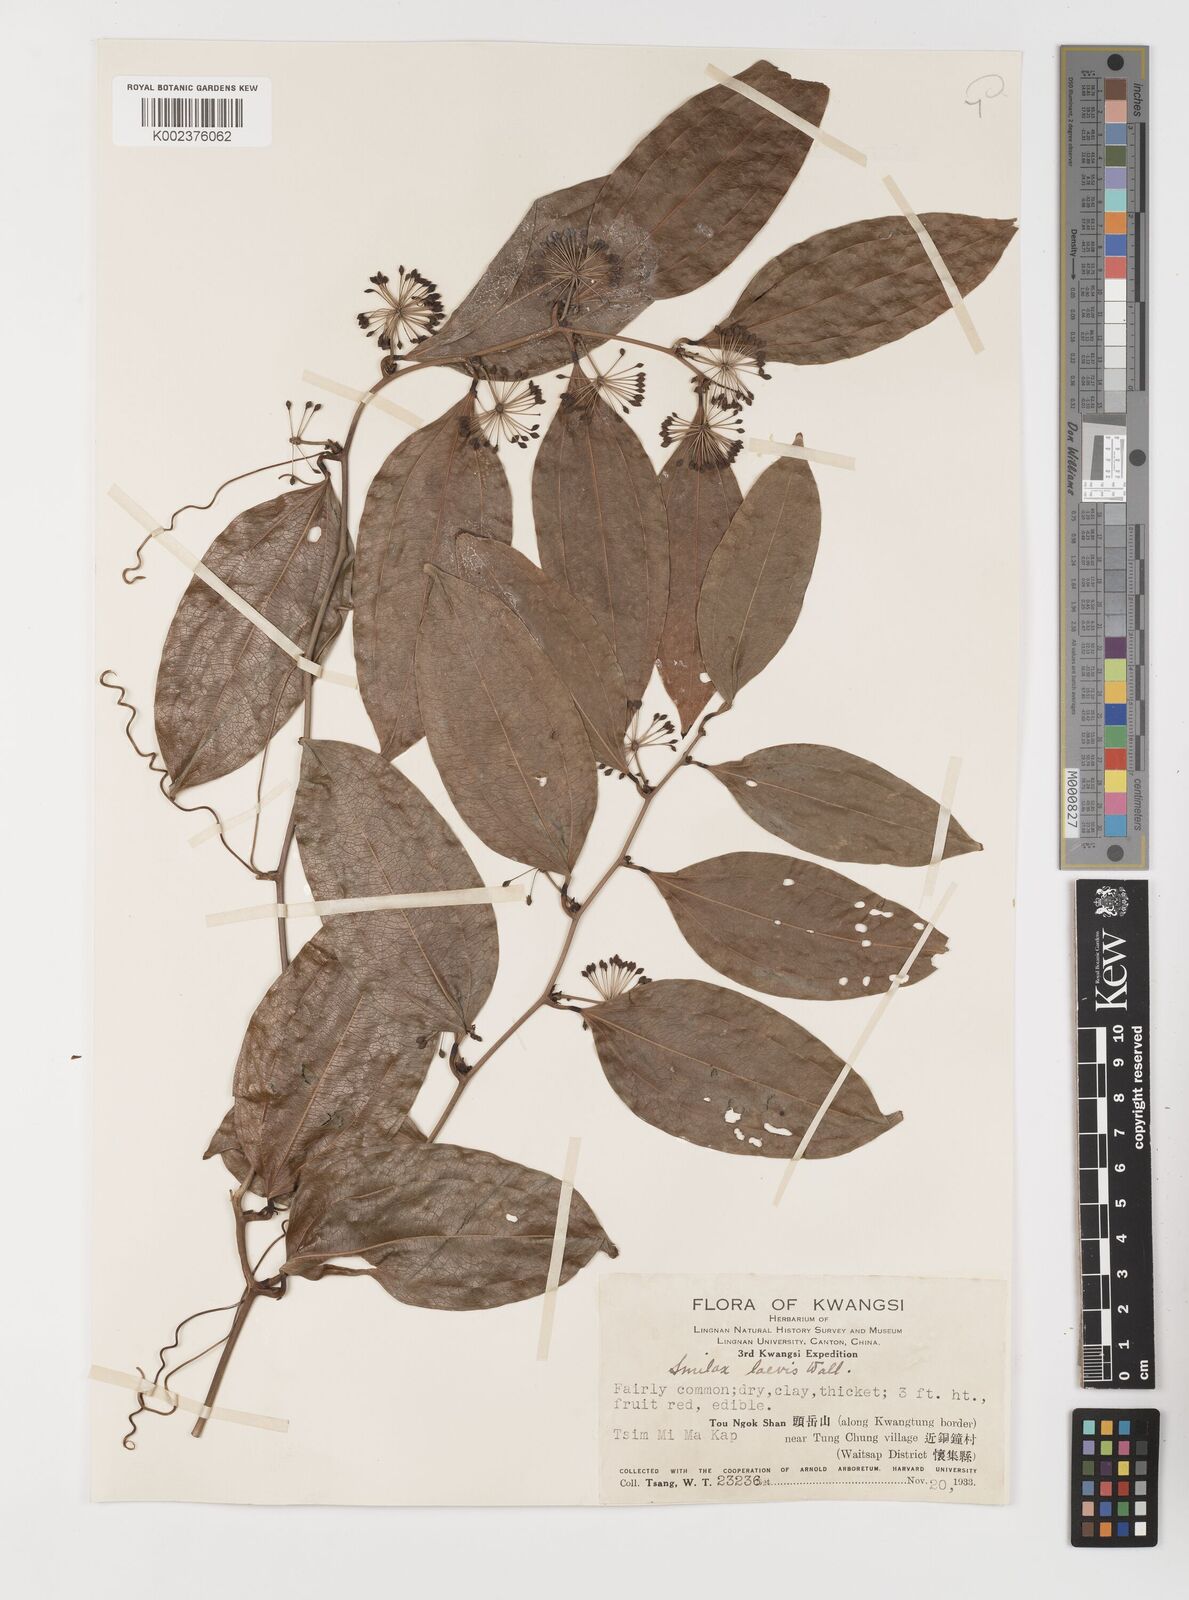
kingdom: Plantae
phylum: Tracheophyta
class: Liliopsida
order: Liliales
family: Smilacaceae
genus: Smilax
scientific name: Smilax lanceifolia
